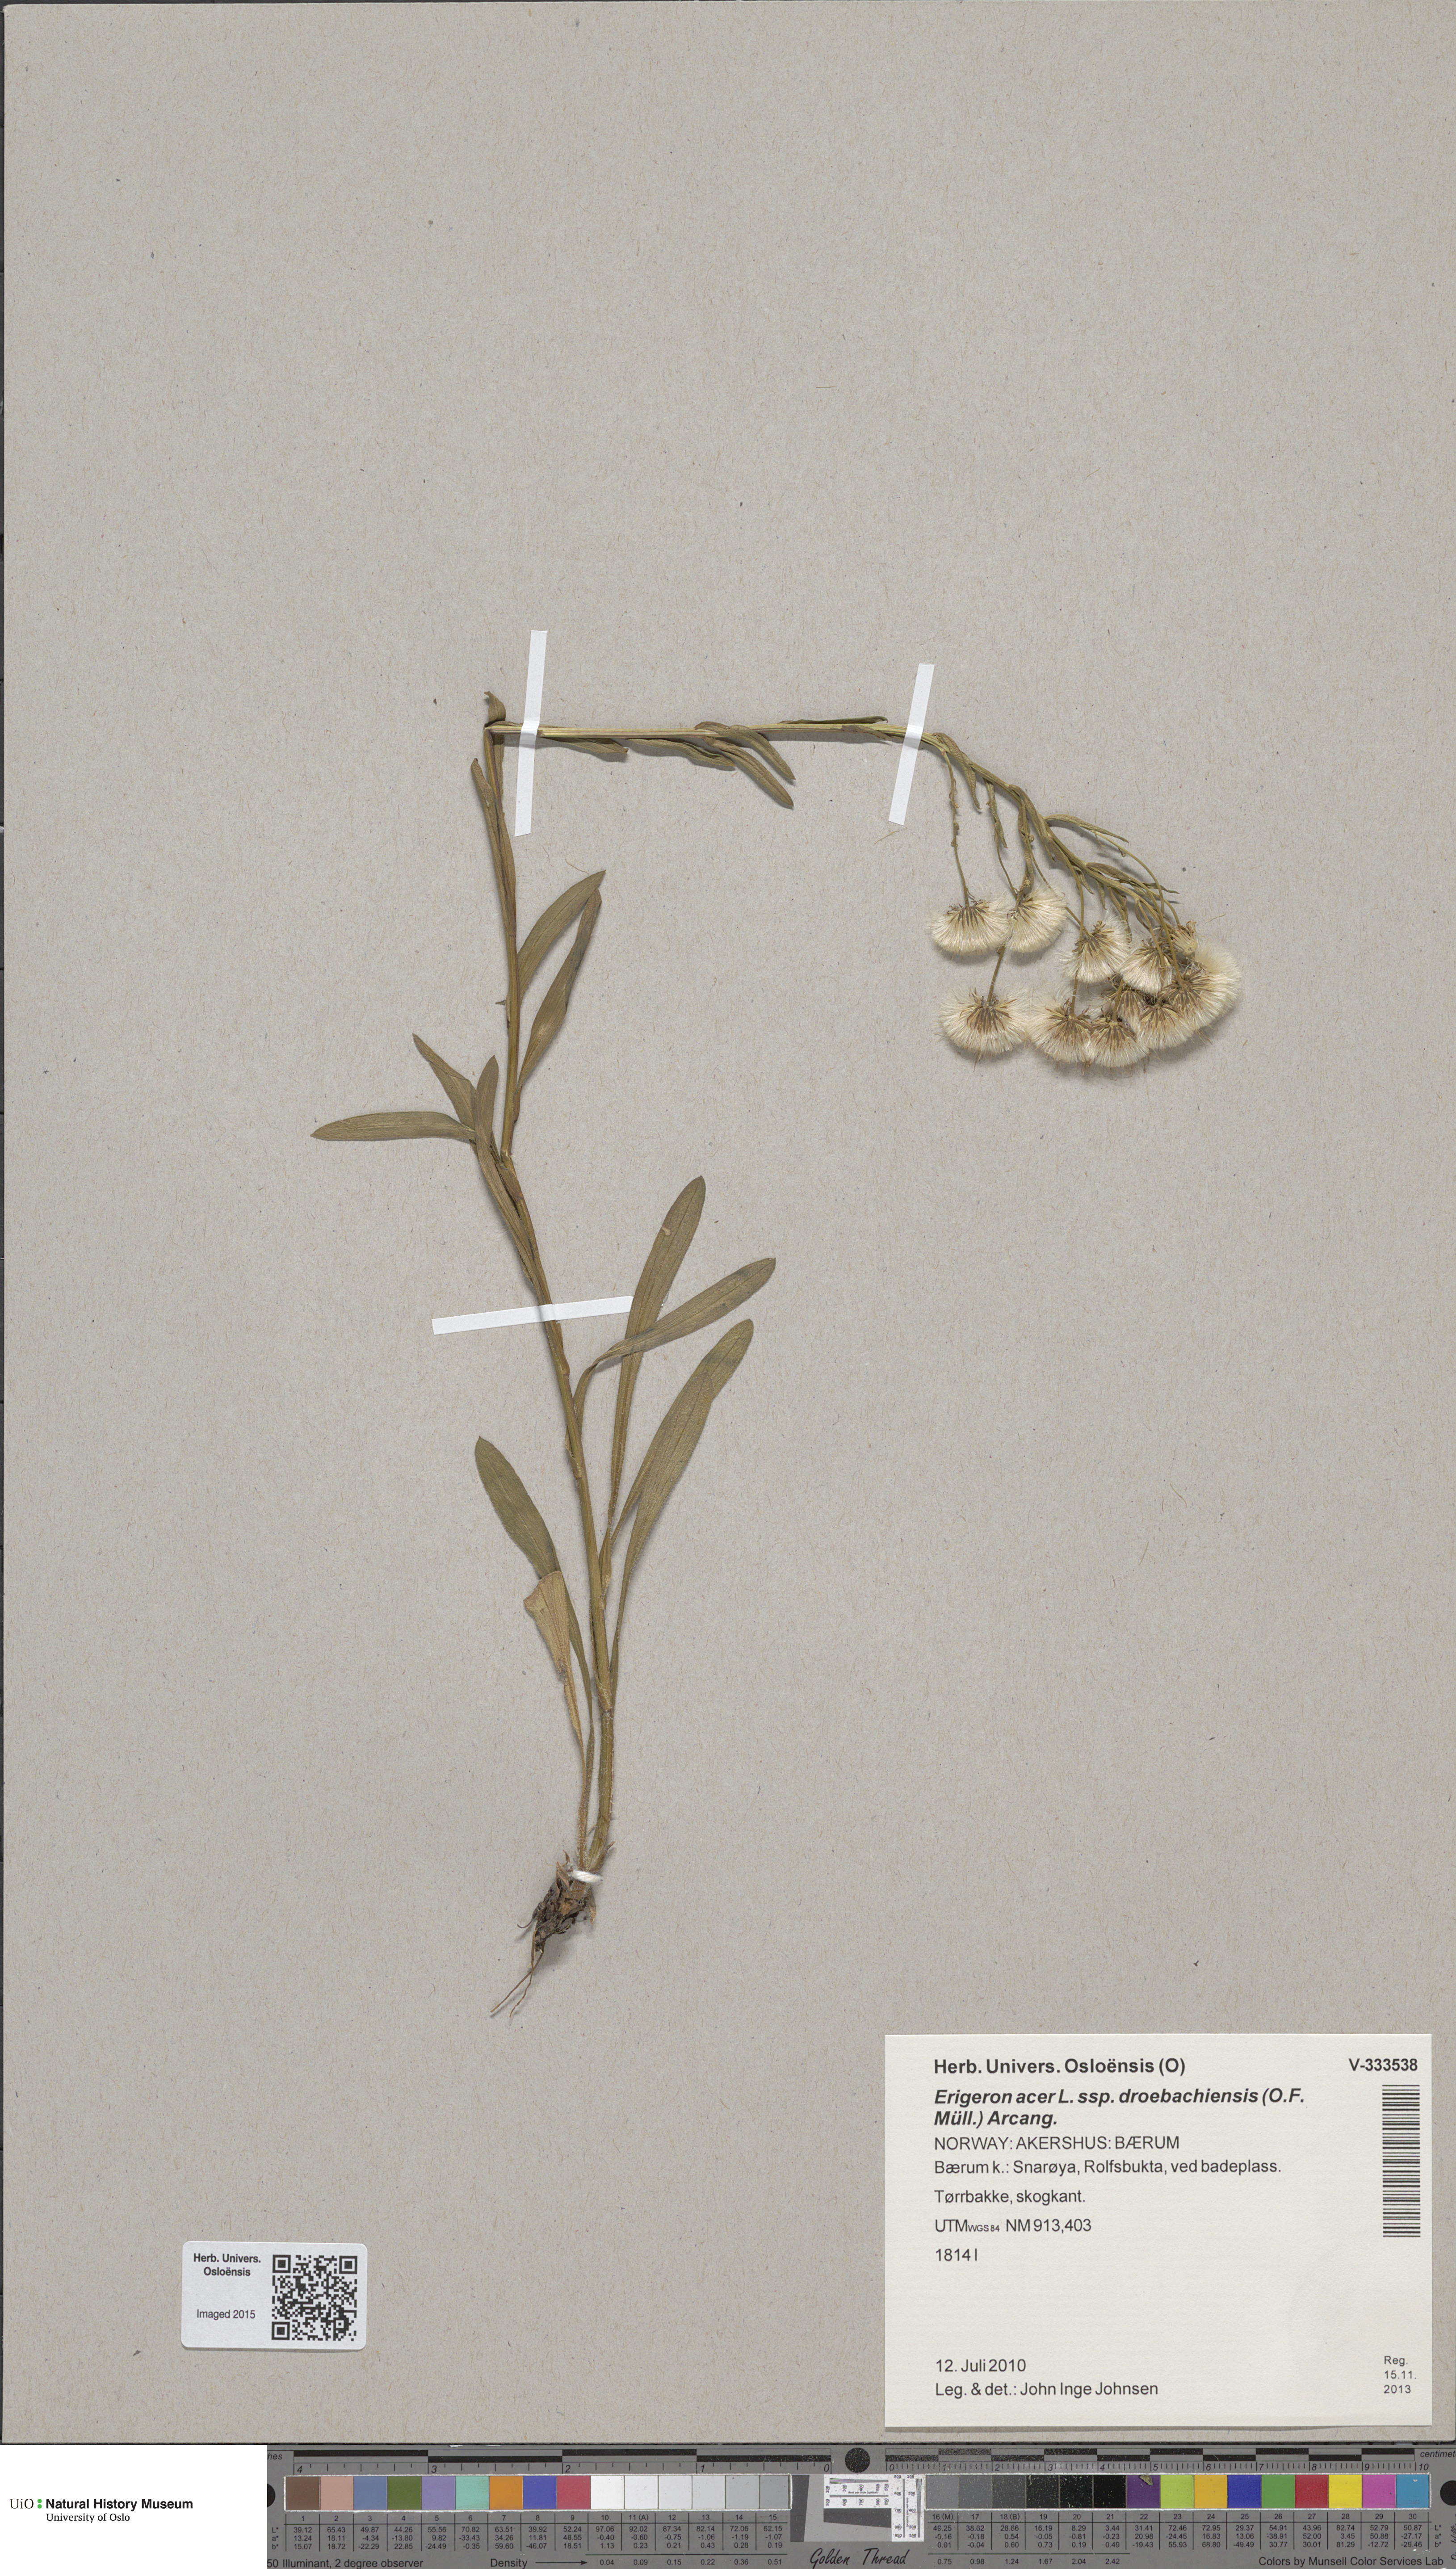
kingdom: Plantae
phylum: Tracheophyta
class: Magnoliopsida
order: Asterales
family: Asteraceae
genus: Erigeron
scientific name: Erigeron droebachiensis
